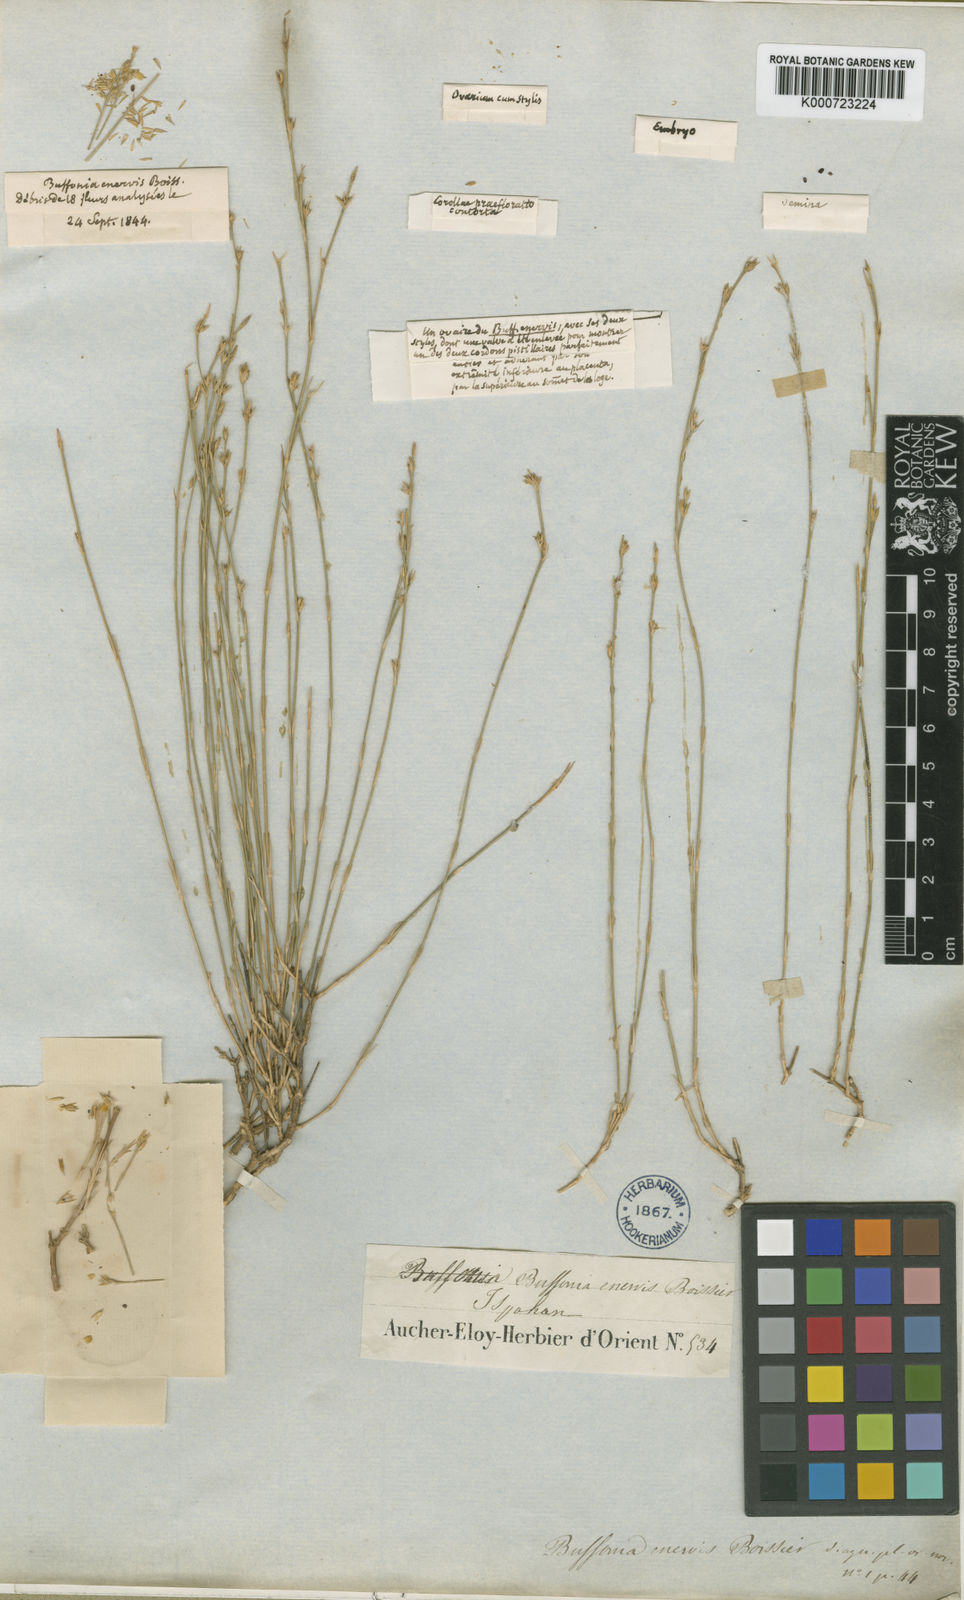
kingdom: Plantae
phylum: Tracheophyta
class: Magnoliopsida
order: Caryophyllales
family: Caryophyllaceae
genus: Bufonia
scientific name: Bufonia enervis
